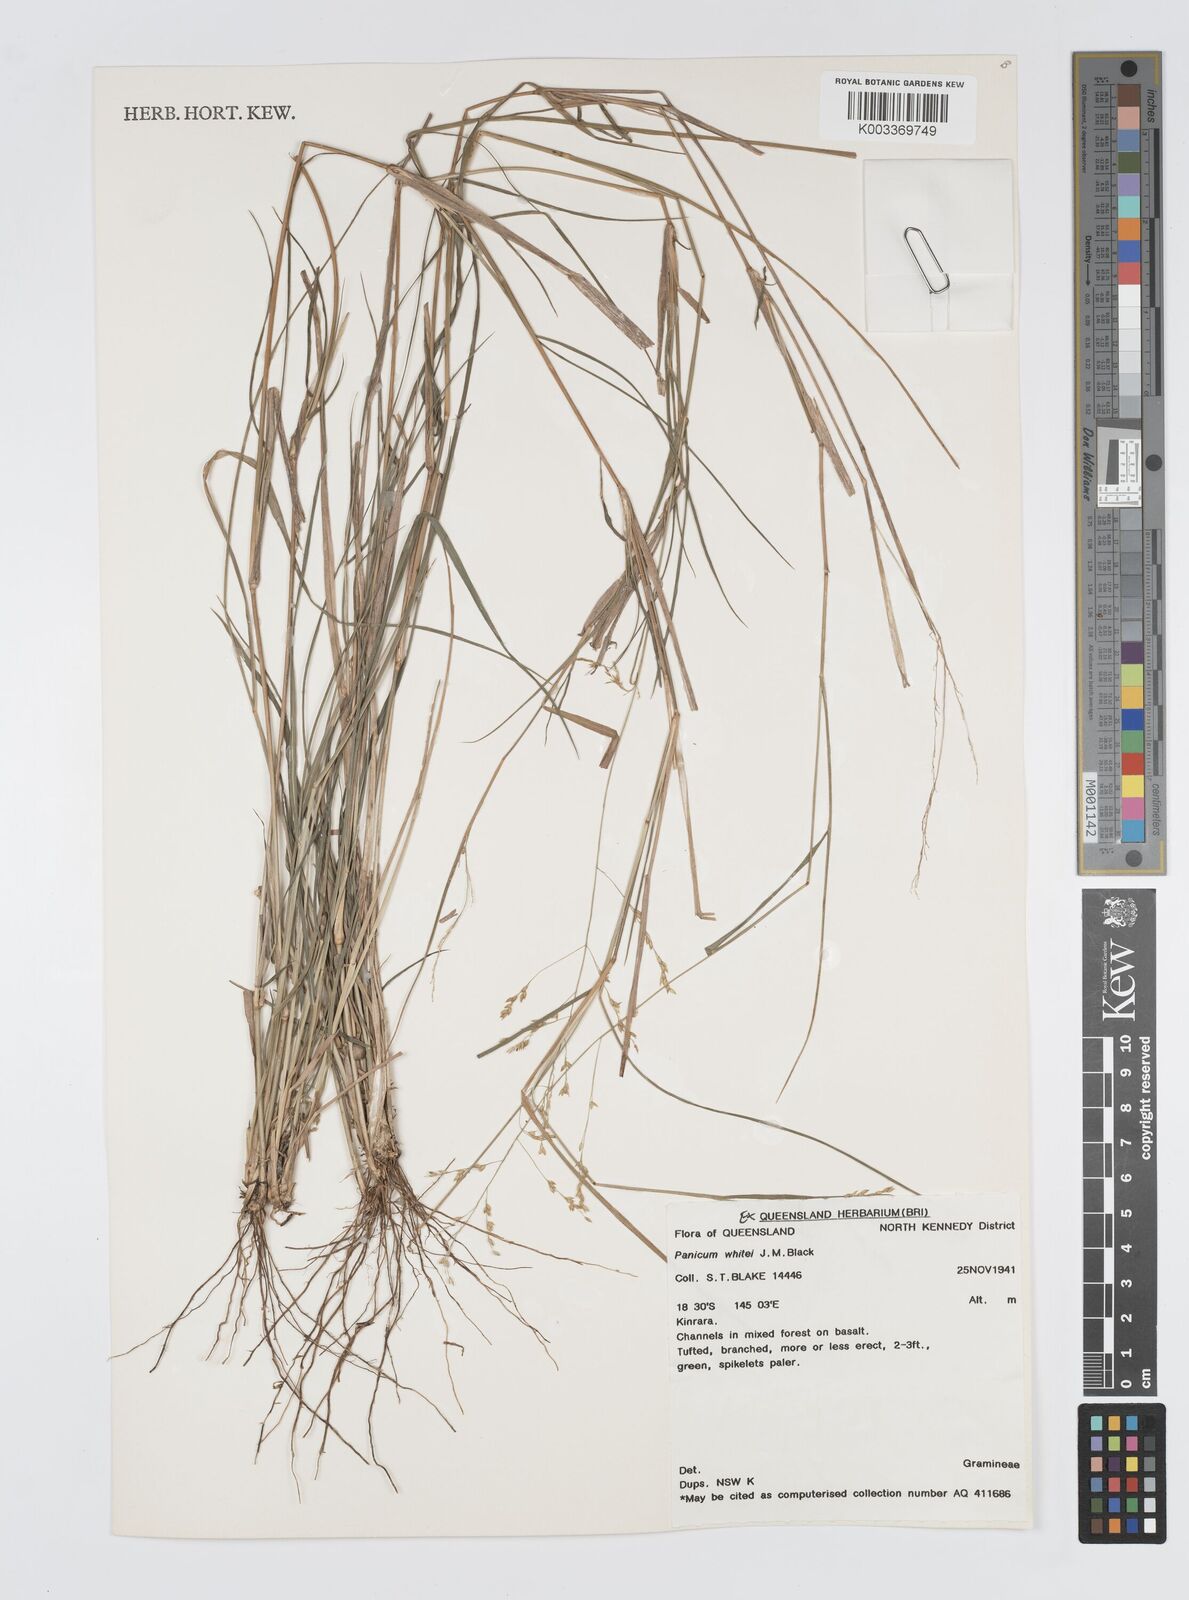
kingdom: Plantae
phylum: Tracheophyta
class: Liliopsida
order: Poales
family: Poaceae
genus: Panicum
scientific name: Panicum laevinode
